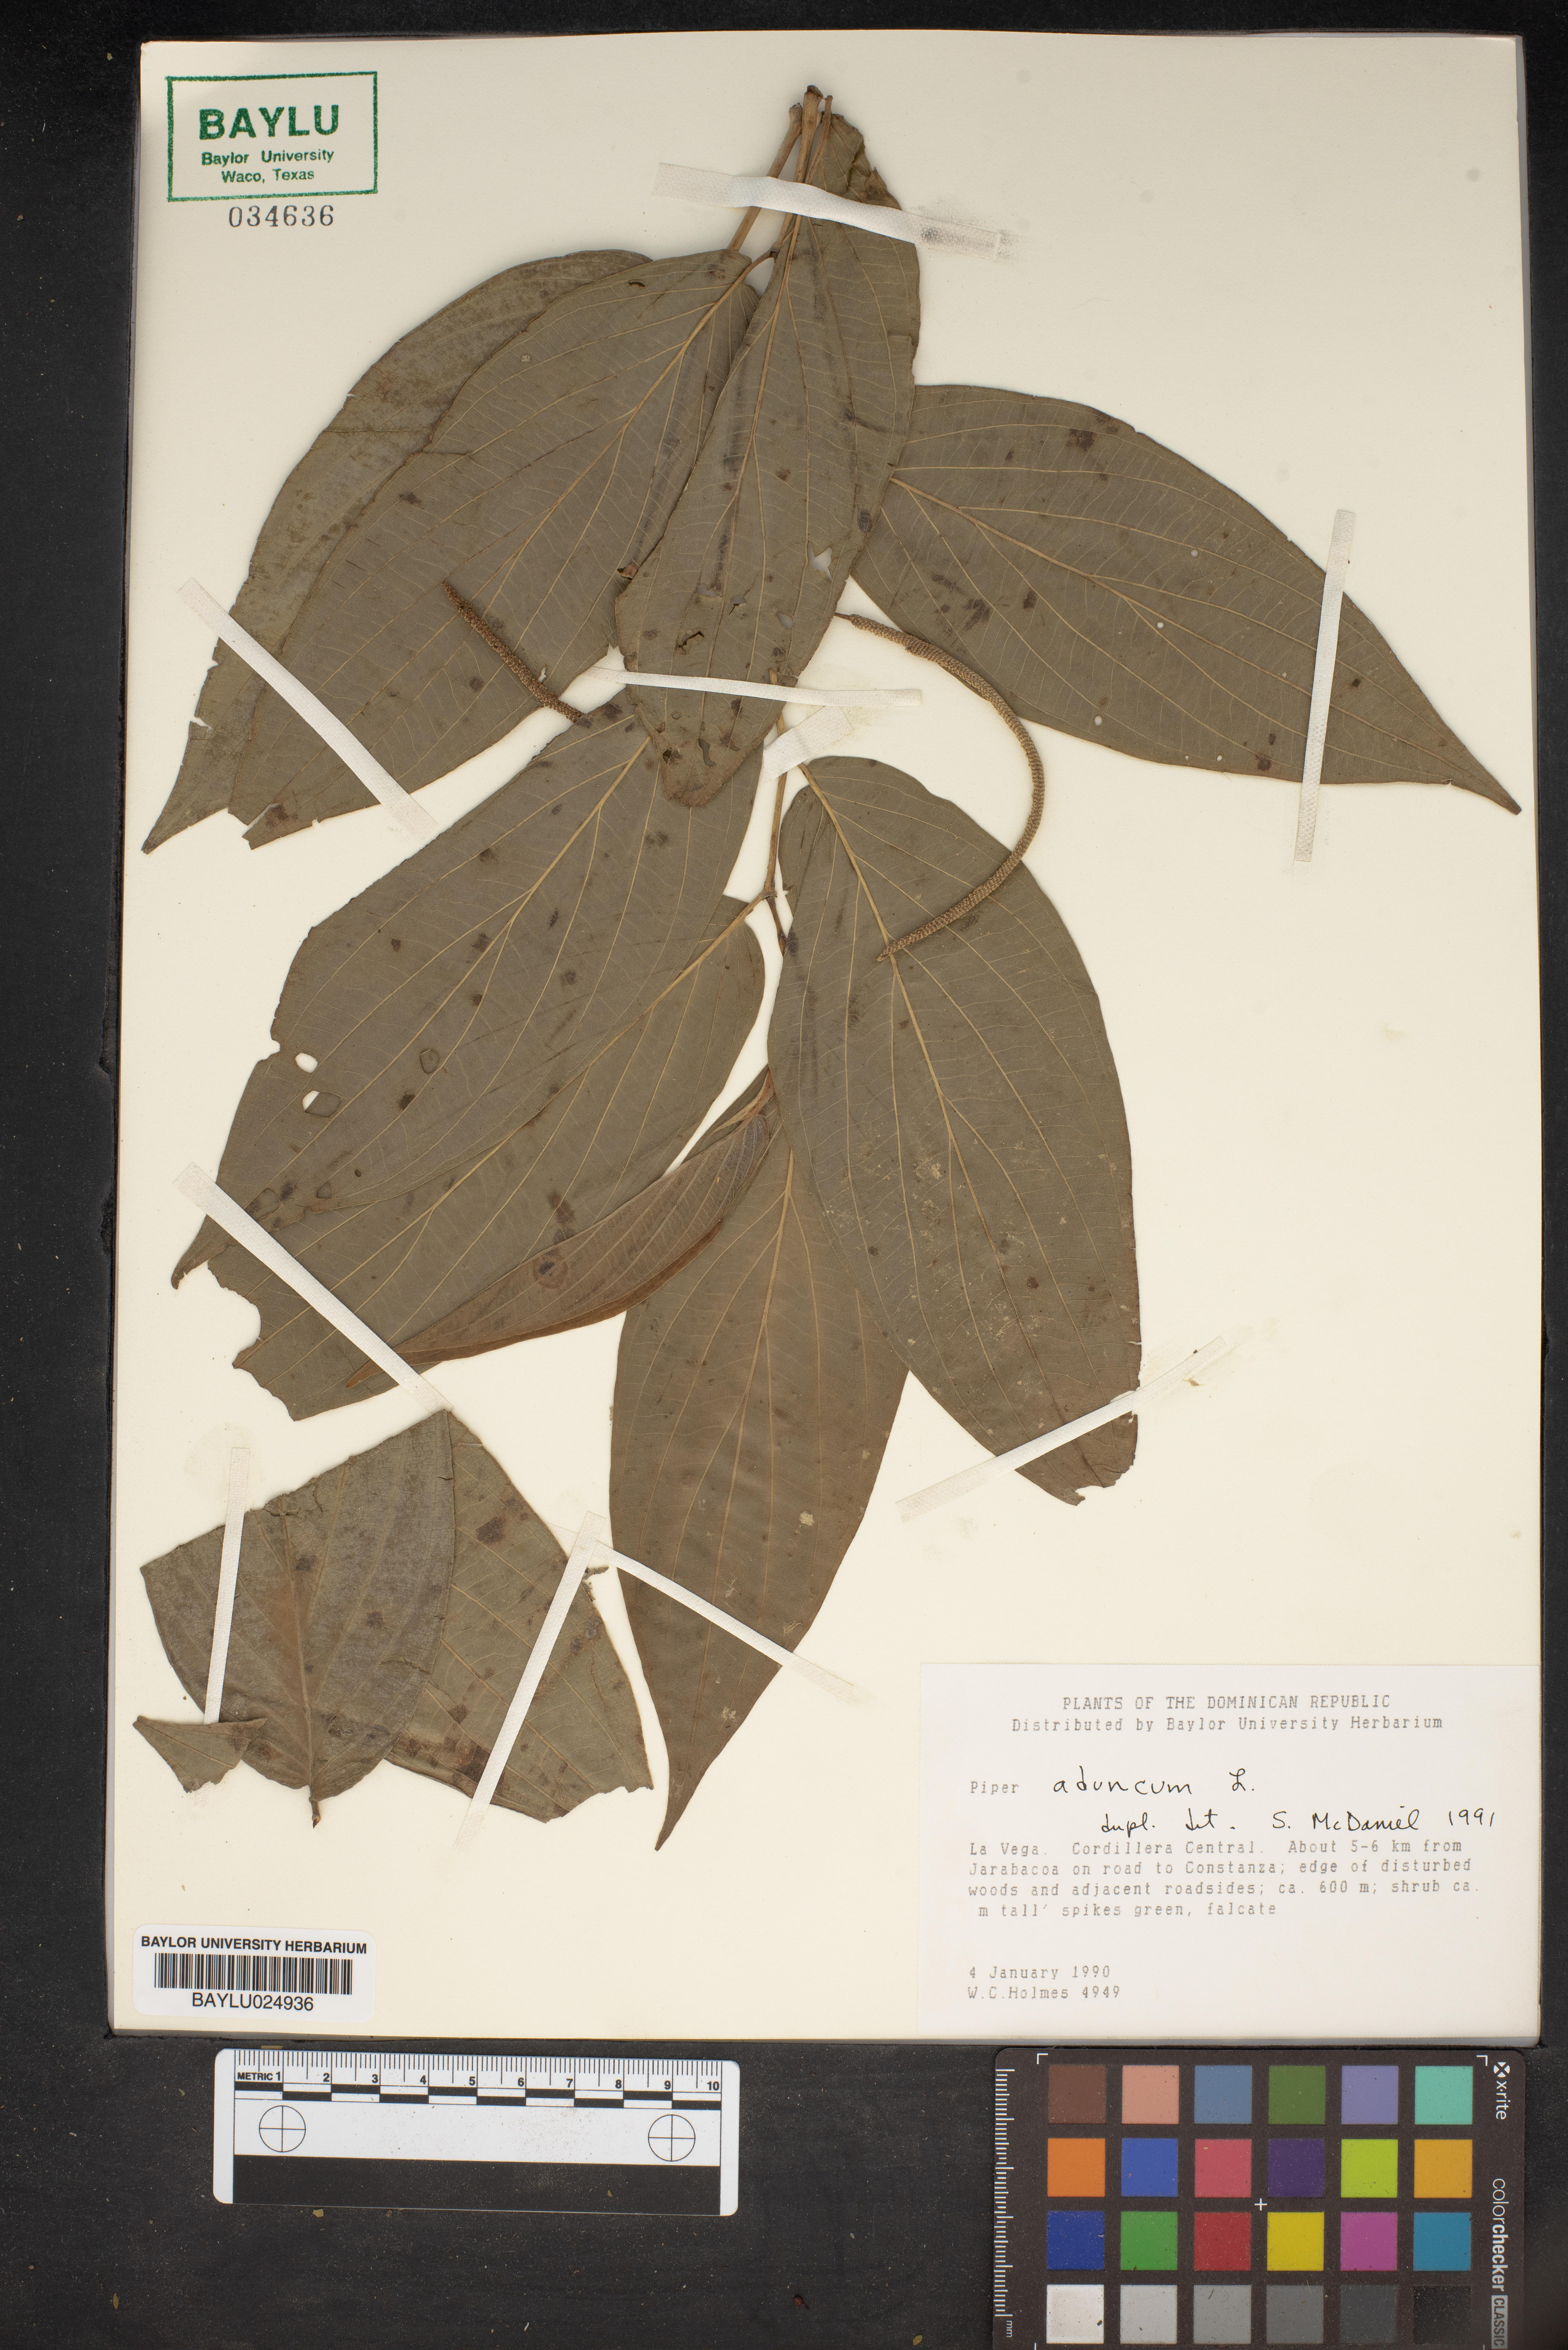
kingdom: Plantae
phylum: Tracheophyta
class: Magnoliopsida
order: Piperales
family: Piperaceae
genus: Piper
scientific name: Piper aduncum
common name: Spiked pepper
